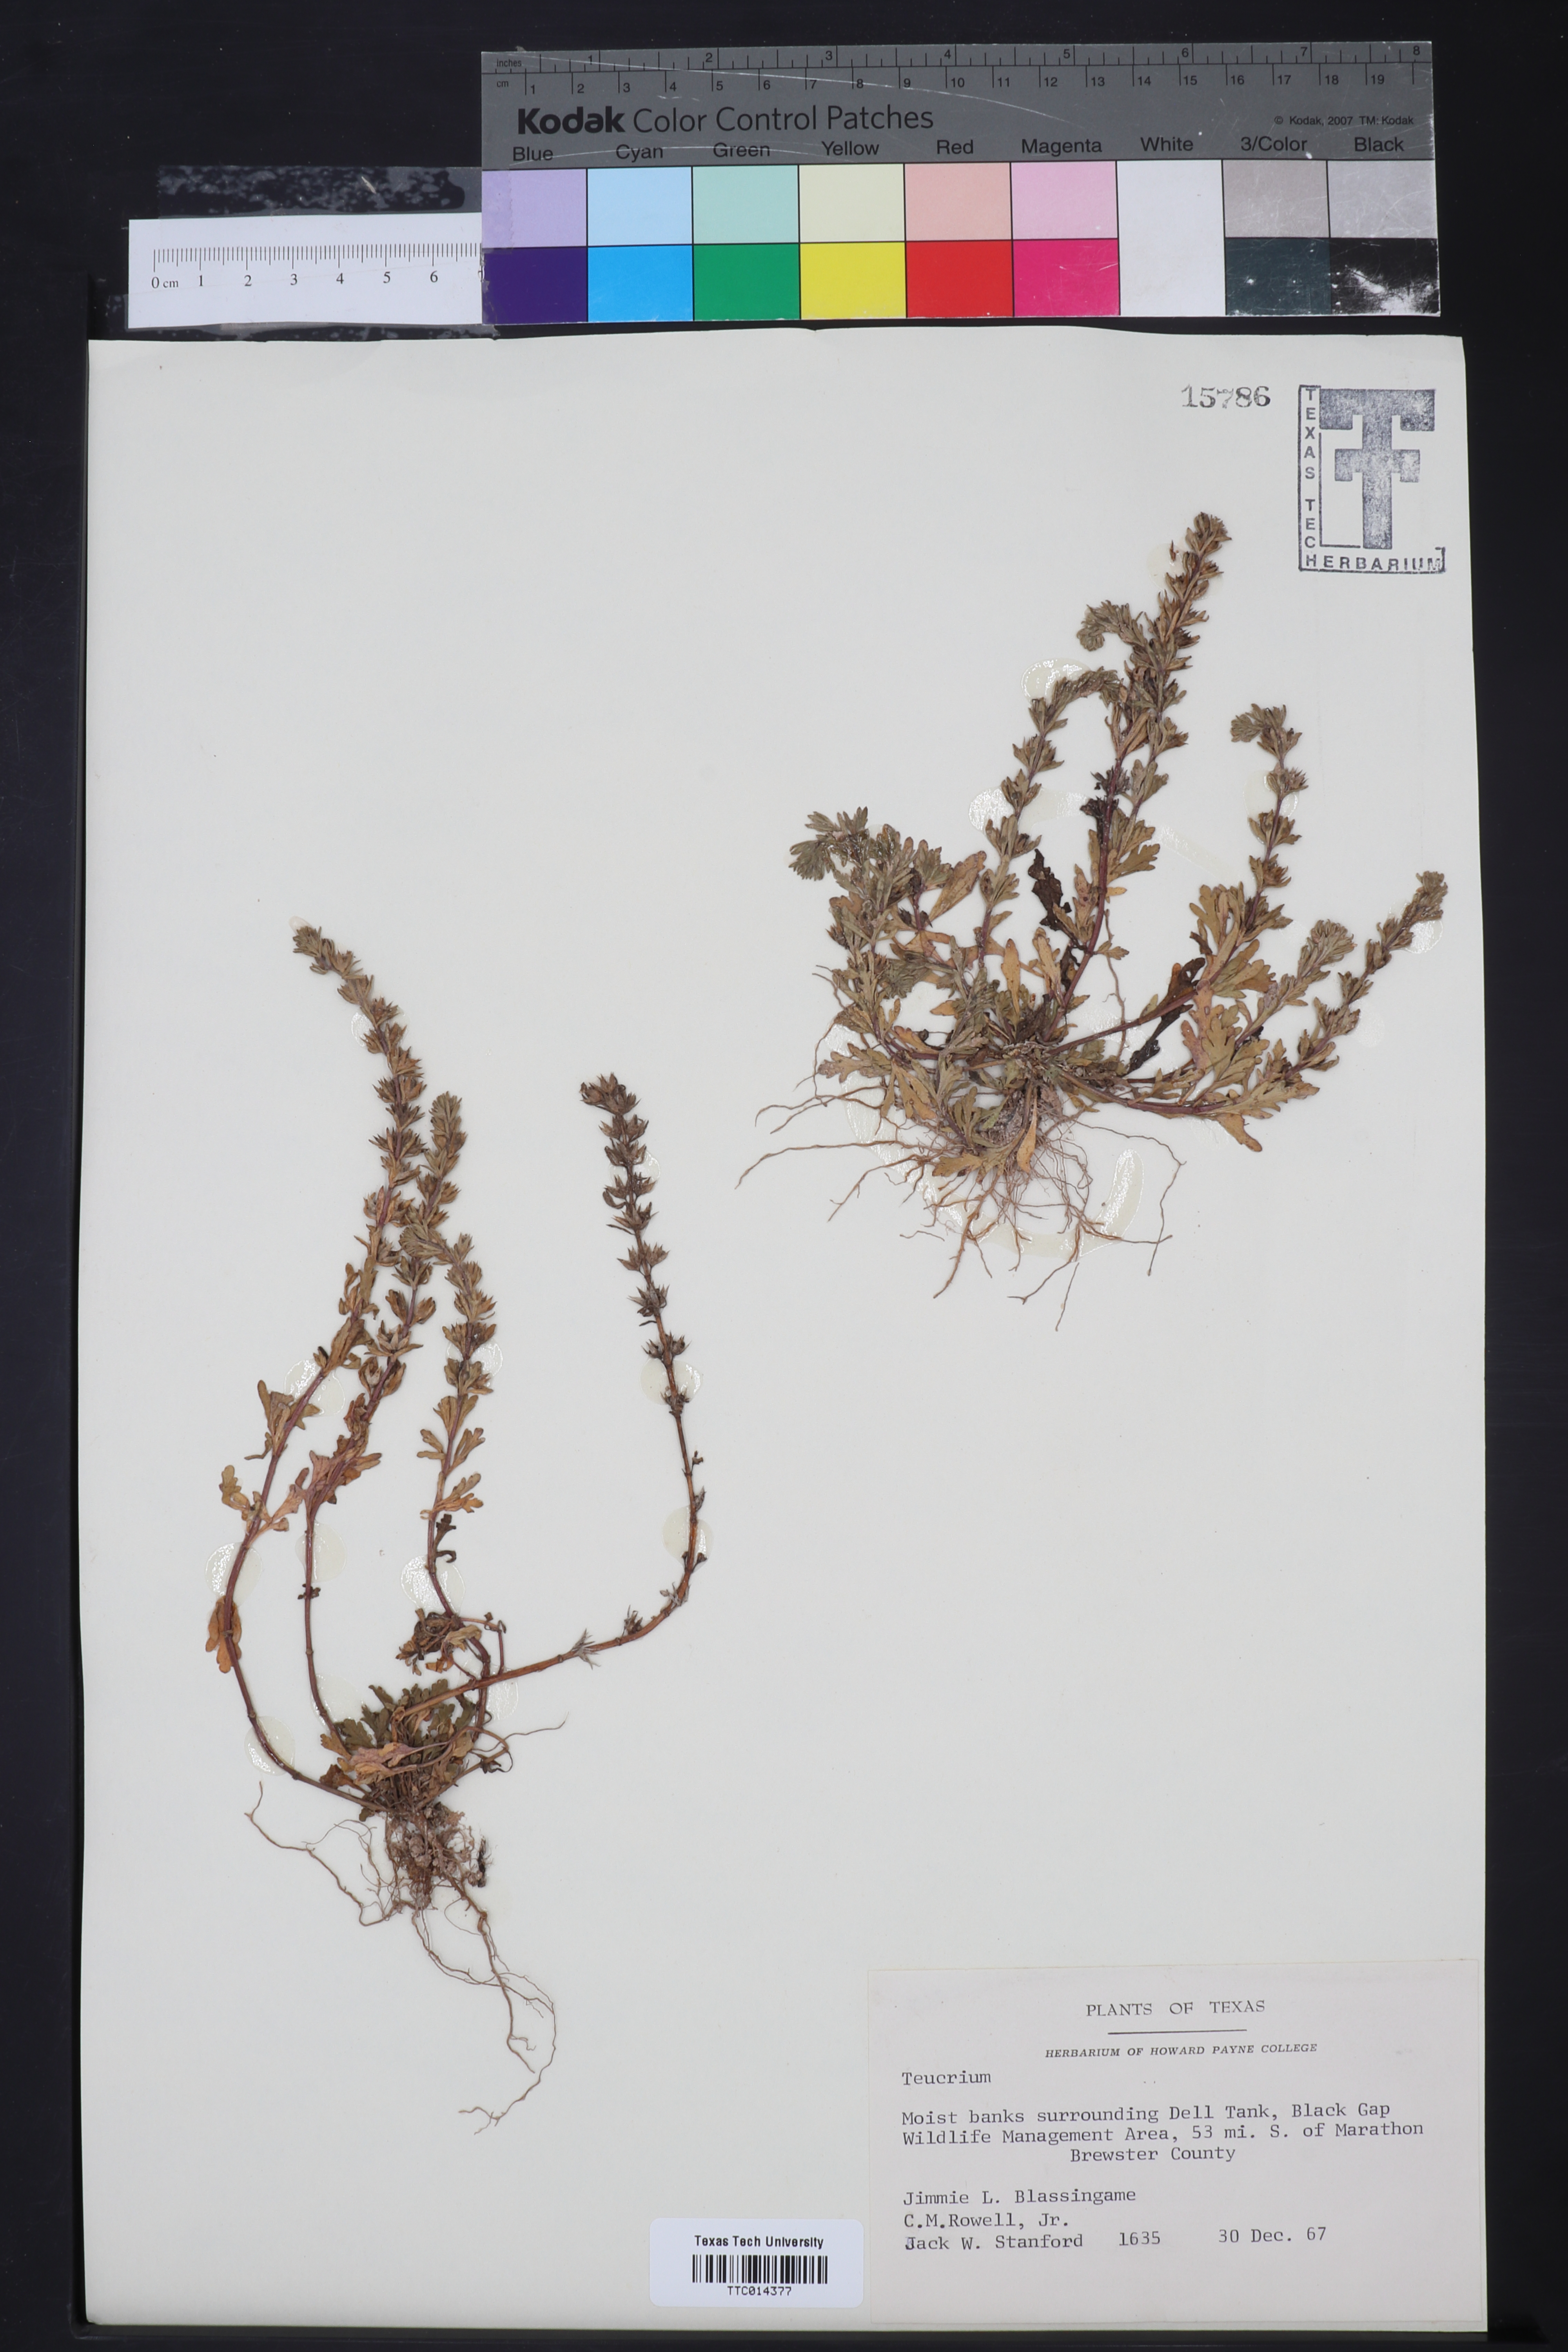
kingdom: Plantae
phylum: Tracheophyta
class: Magnoliopsida
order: Lamiales
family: Lamiaceae
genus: Teucrium
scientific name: Teucrium
